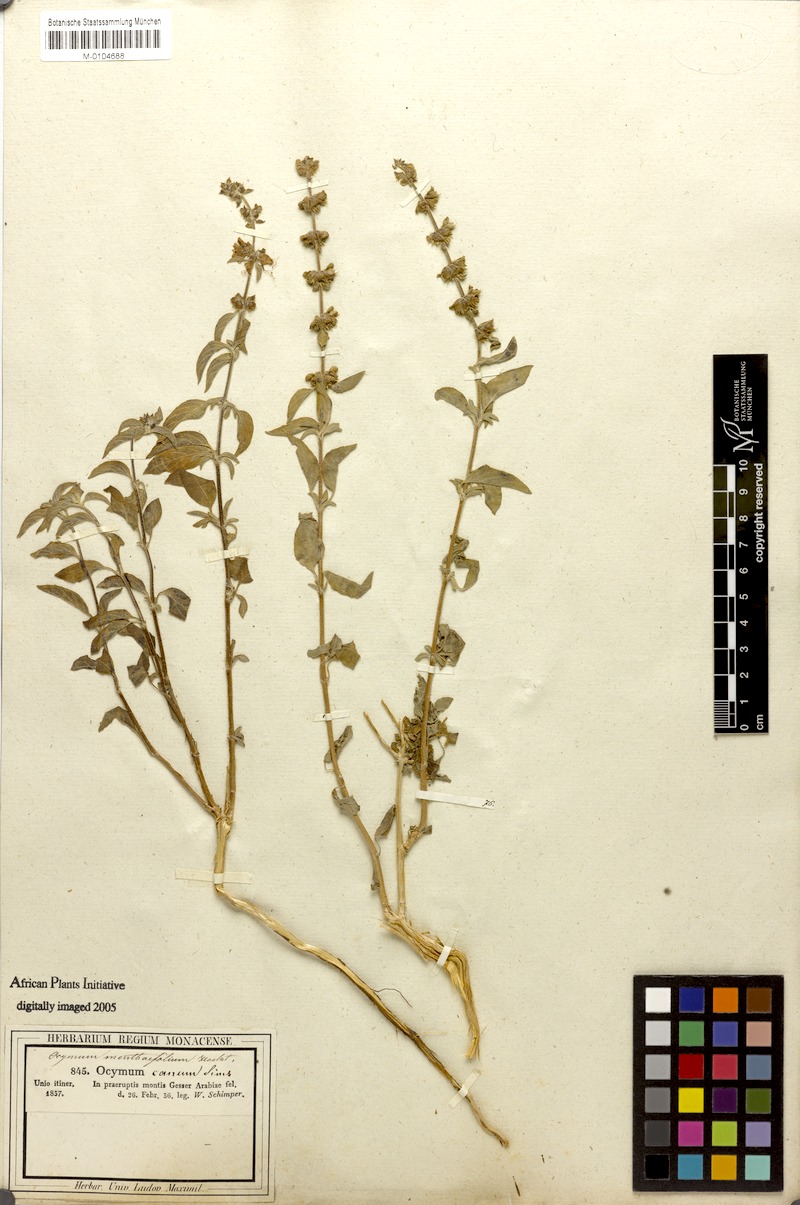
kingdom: Plantae
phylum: Tracheophyta
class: Magnoliopsida
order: Lamiales
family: Lamiaceae
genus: Ocimum
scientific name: Ocimum forskoelei
